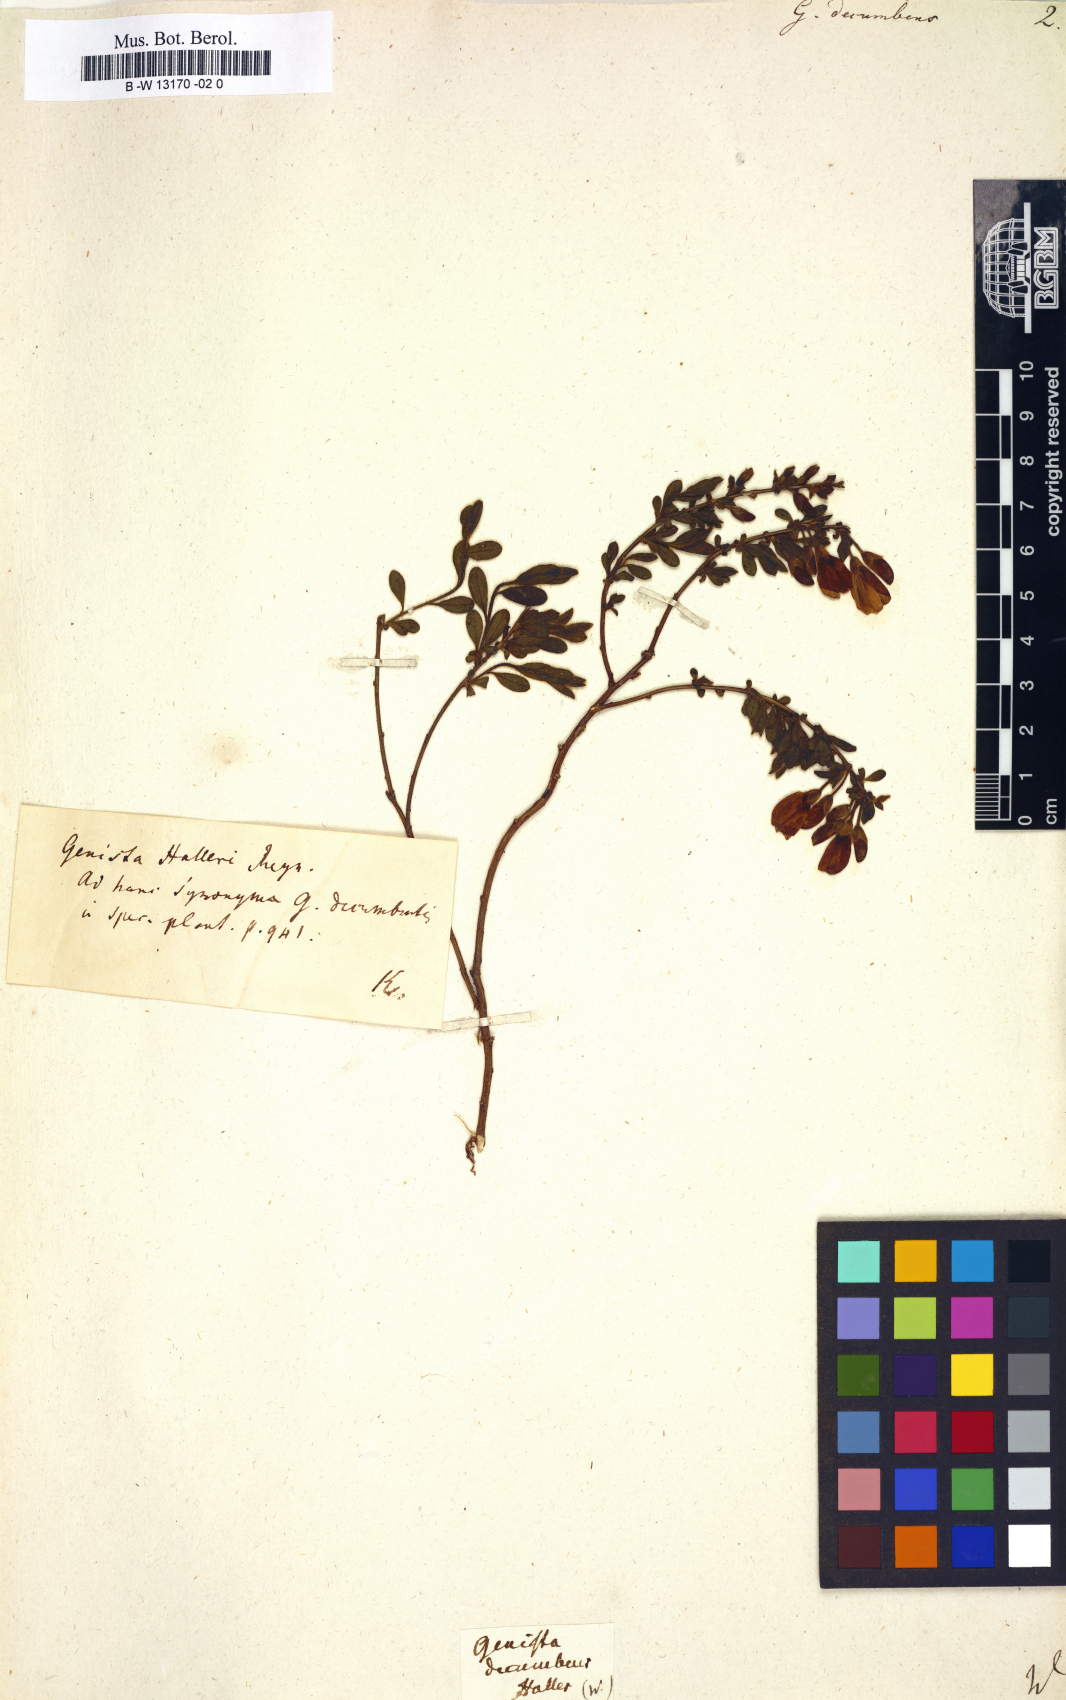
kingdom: Plantae
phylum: Tracheophyta
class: Magnoliopsida
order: Fabales
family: Fabaceae
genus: Cytisus
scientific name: Cytisus decumbens
